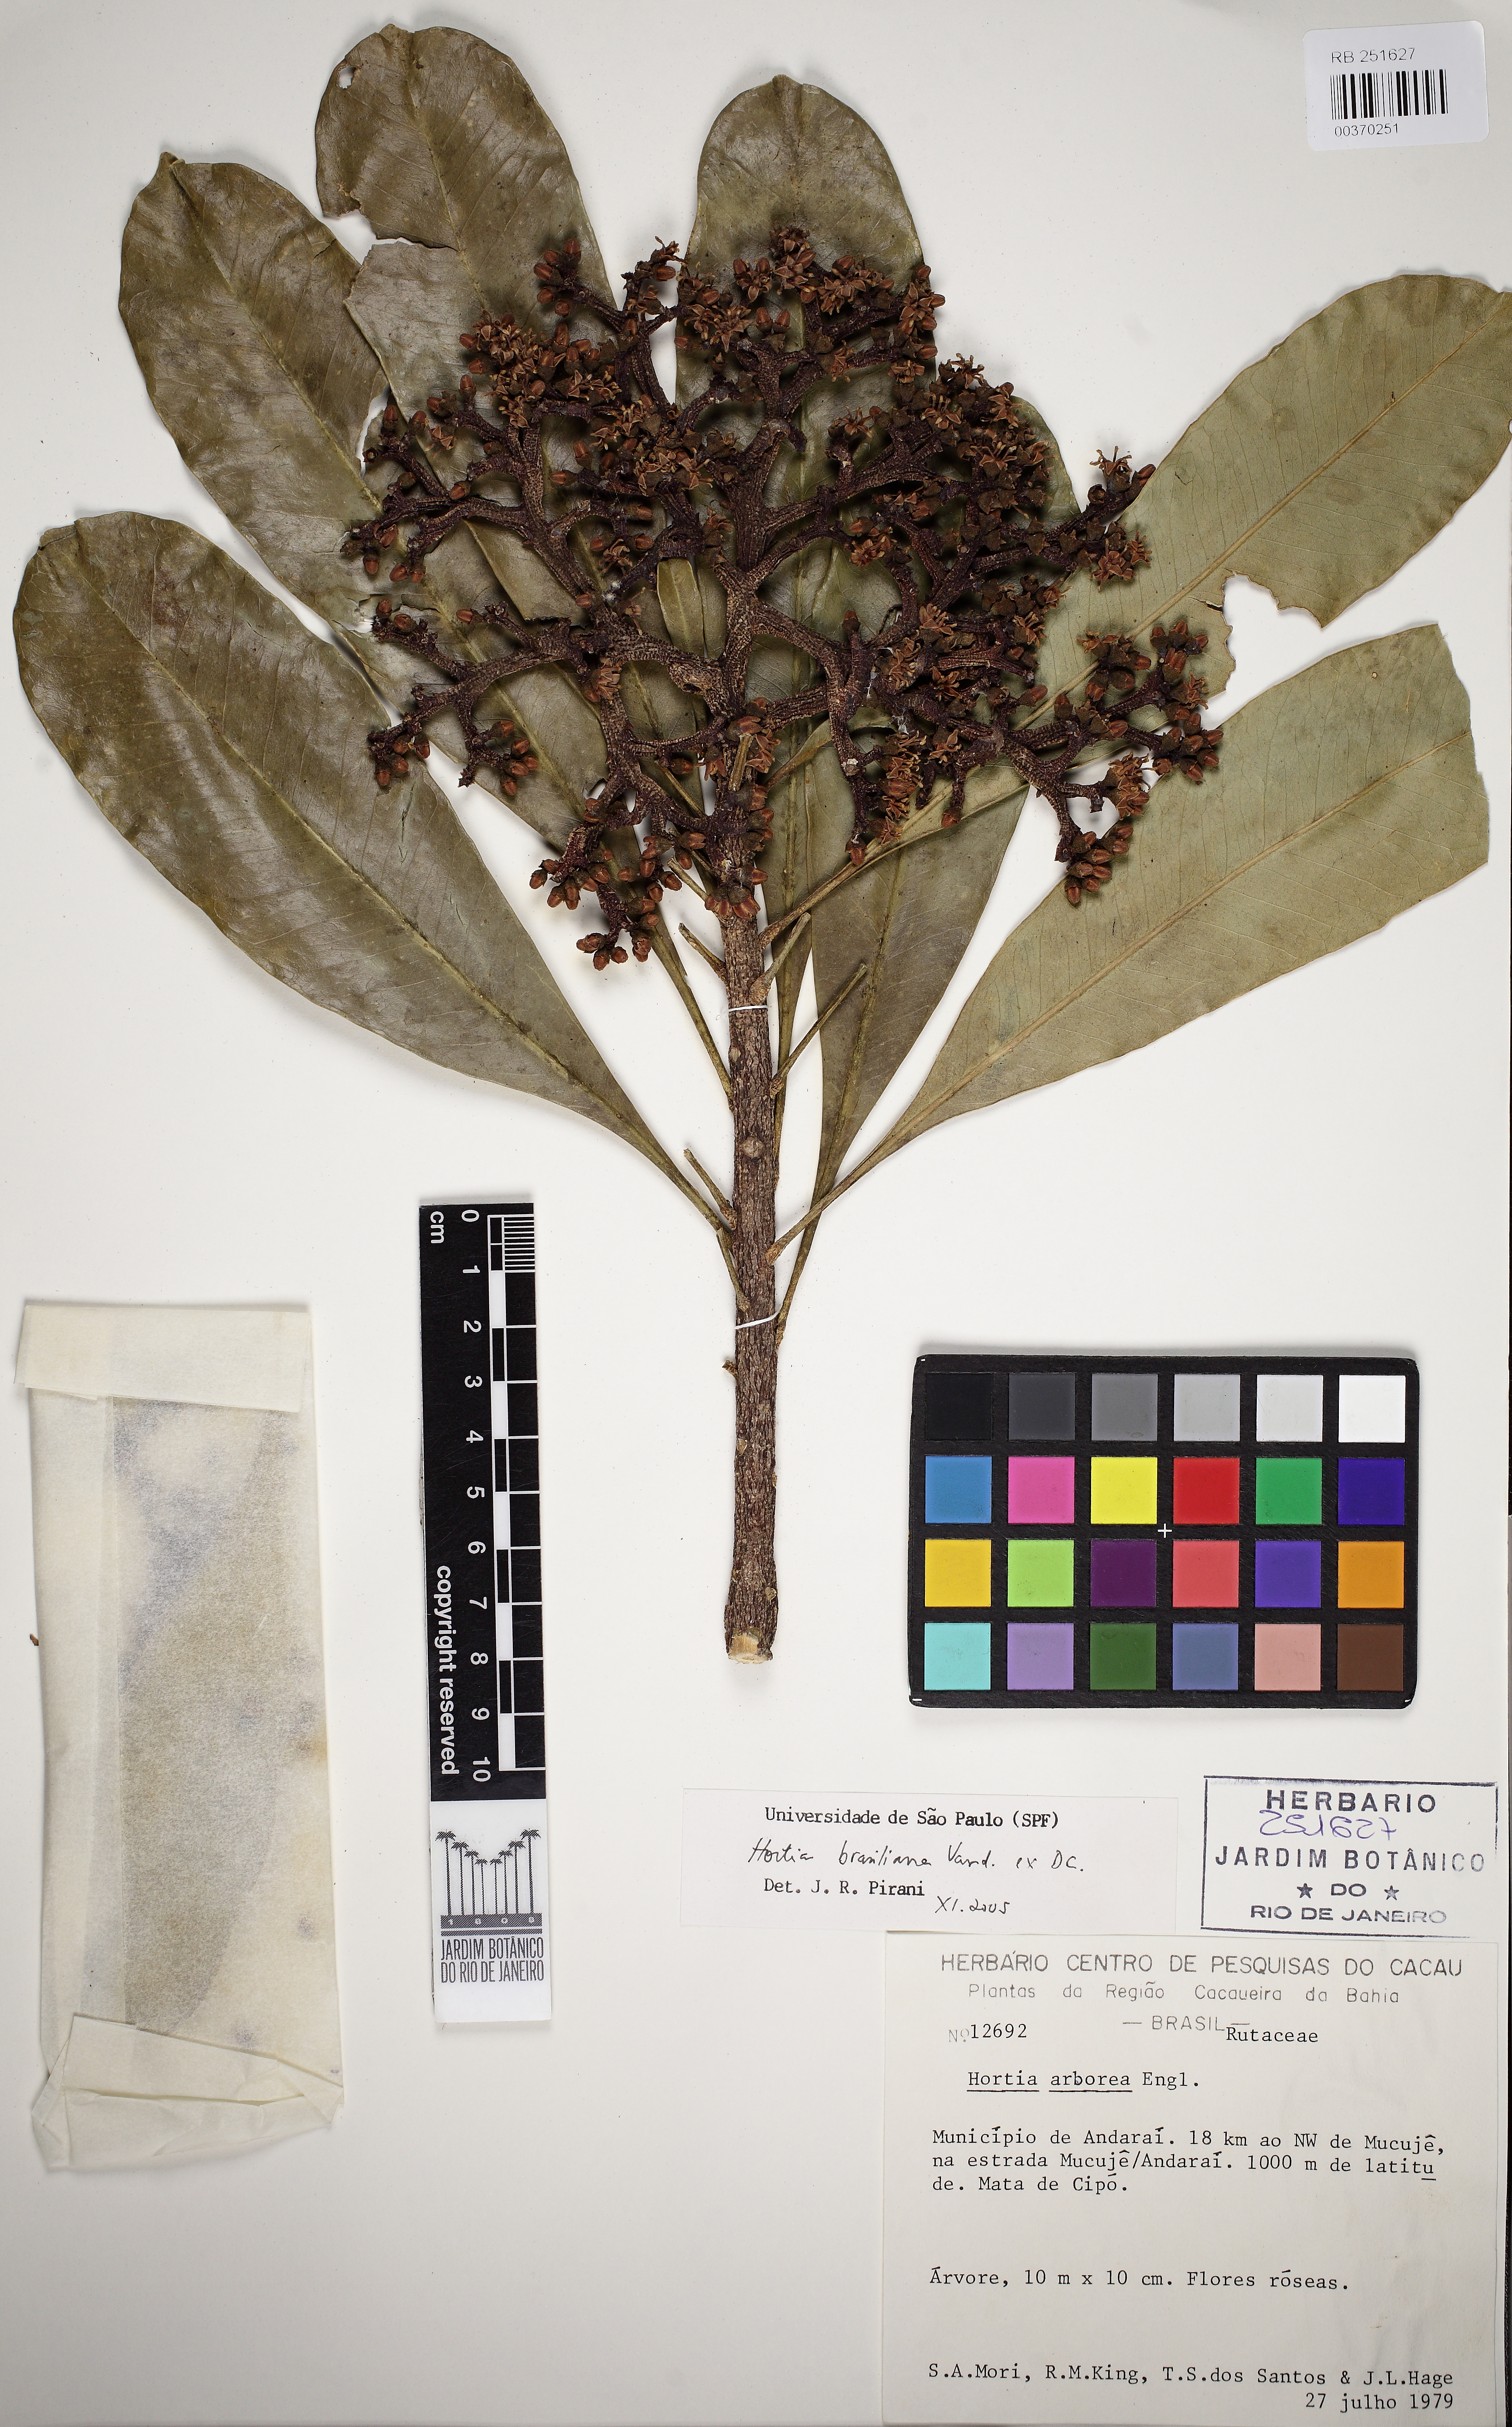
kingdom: Plantae
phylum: Tracheophyta
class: Magnoliopsida
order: Sapindales
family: Rutaceae
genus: Hortia
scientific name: Hortia brasiliana
